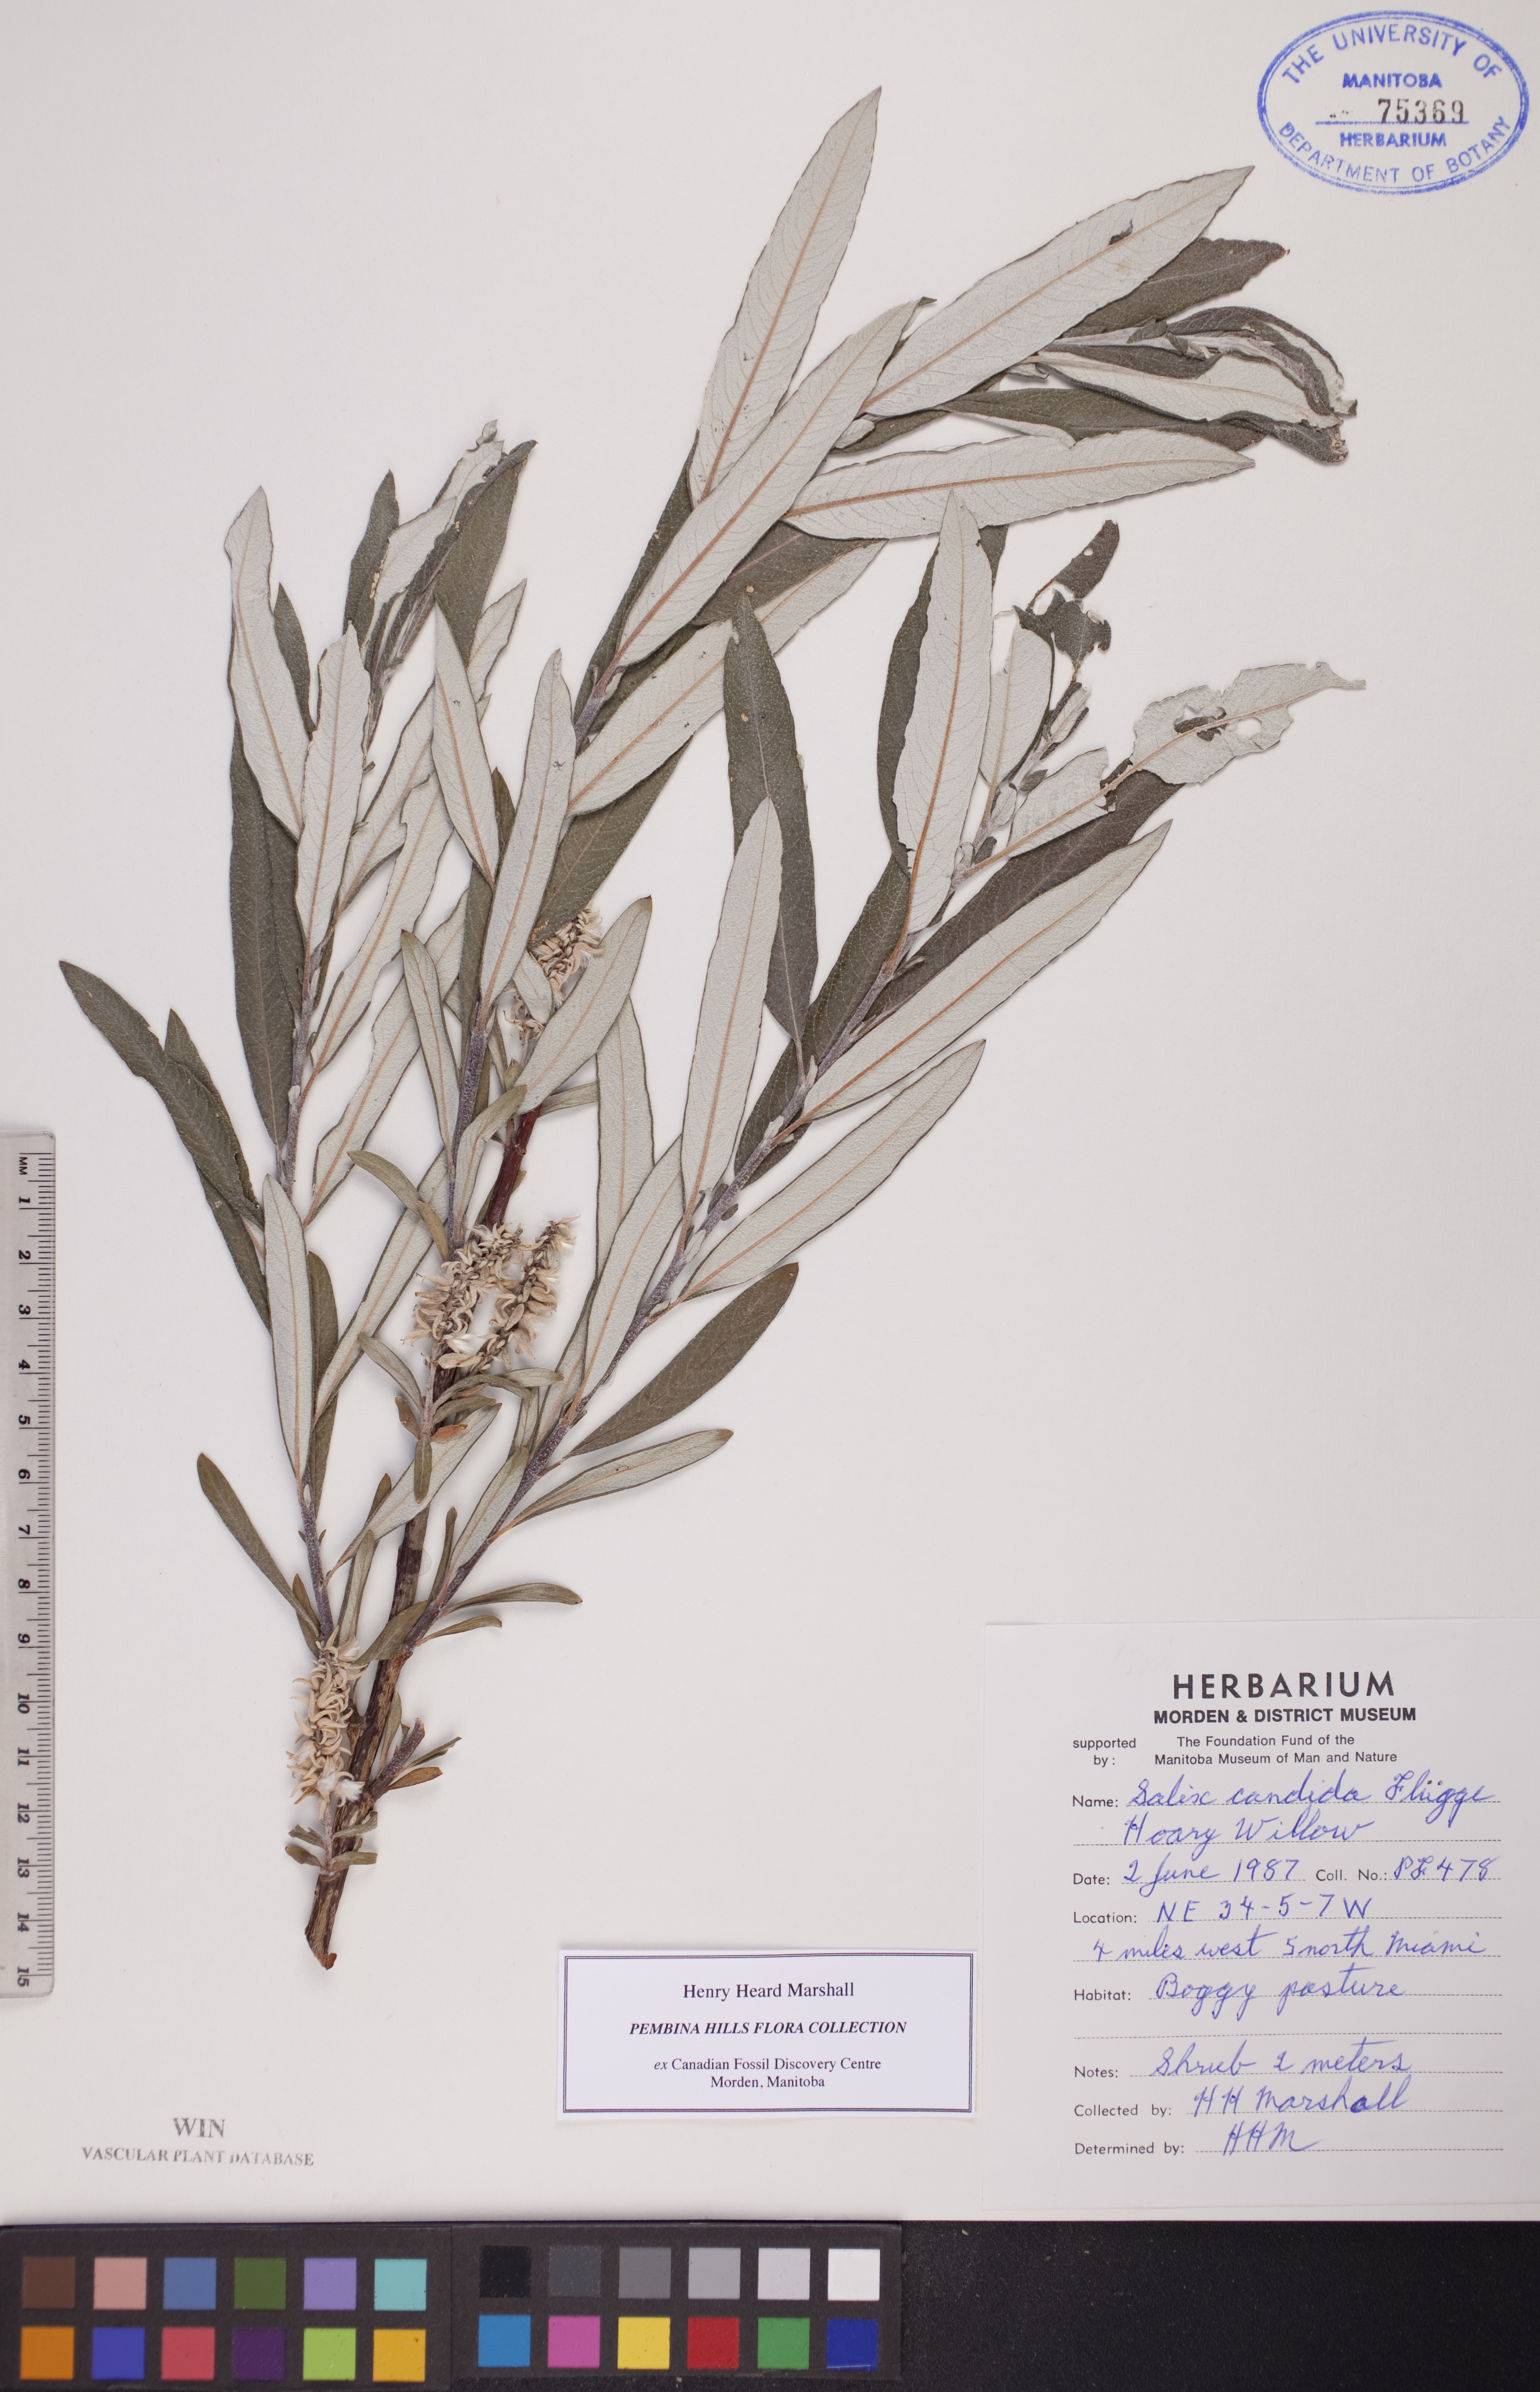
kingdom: Plantae
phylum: Tracheophyta
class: Magnoliopsida
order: Malpighiales
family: Salicaceae
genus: Salix
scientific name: Salix candida
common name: Hoary willow
